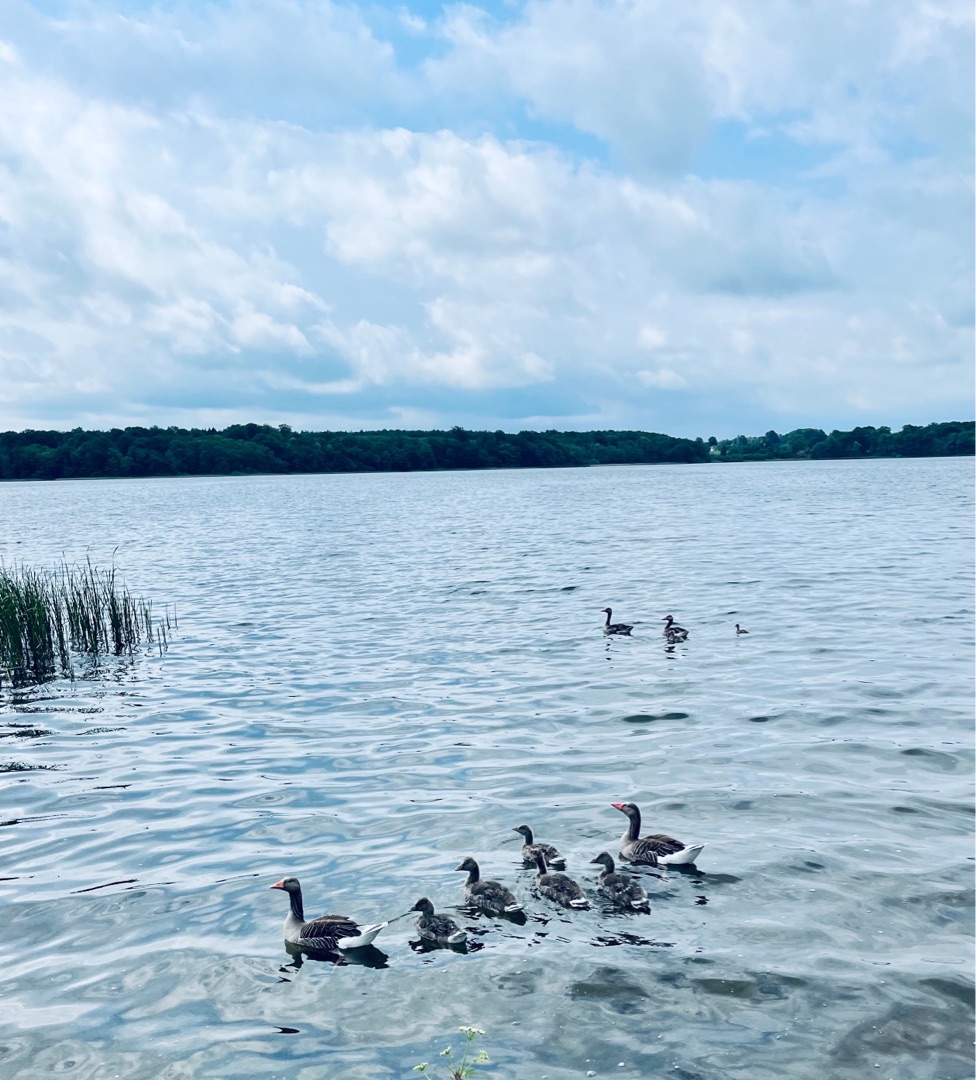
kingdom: Animalia
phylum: Chordata
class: Aves
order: Anseriformes
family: Anatidae
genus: Anser
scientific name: Anser anser
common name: Grågås
